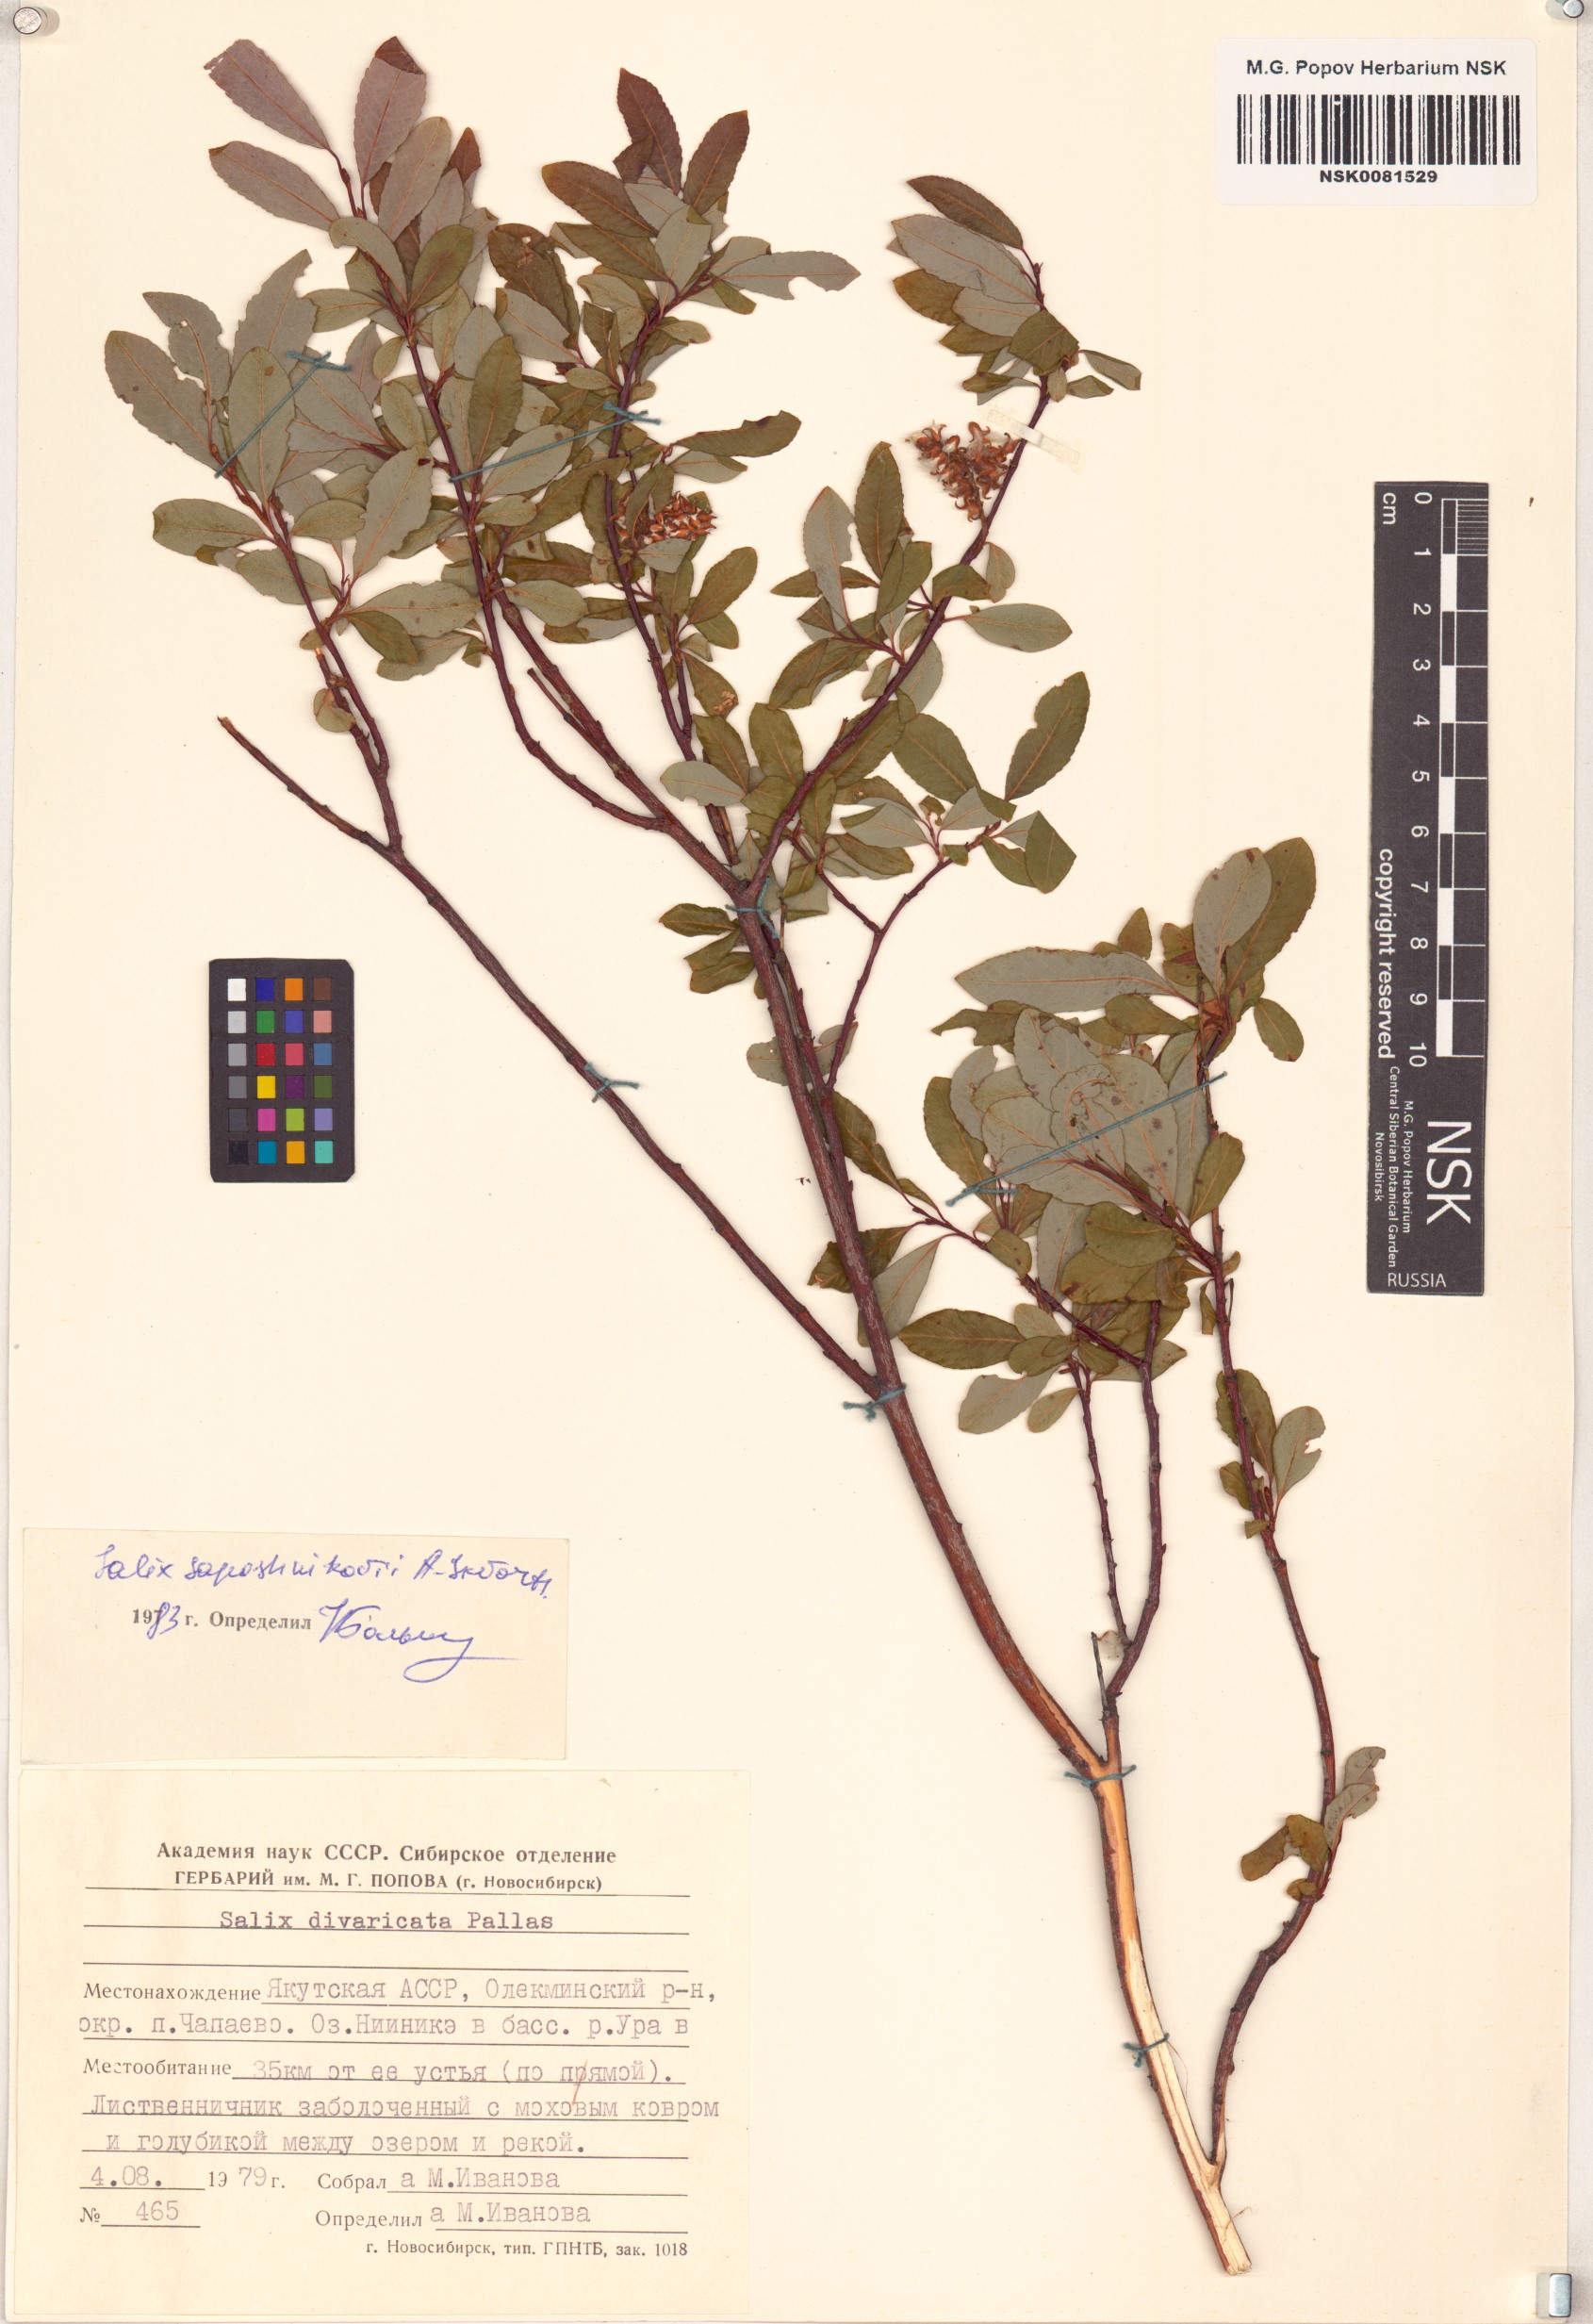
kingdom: Plantae
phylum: Tracheophyta
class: Magnoliopsida
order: Malpighiales
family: Salicaceae
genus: Salix
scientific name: Salix saposhnikovii
